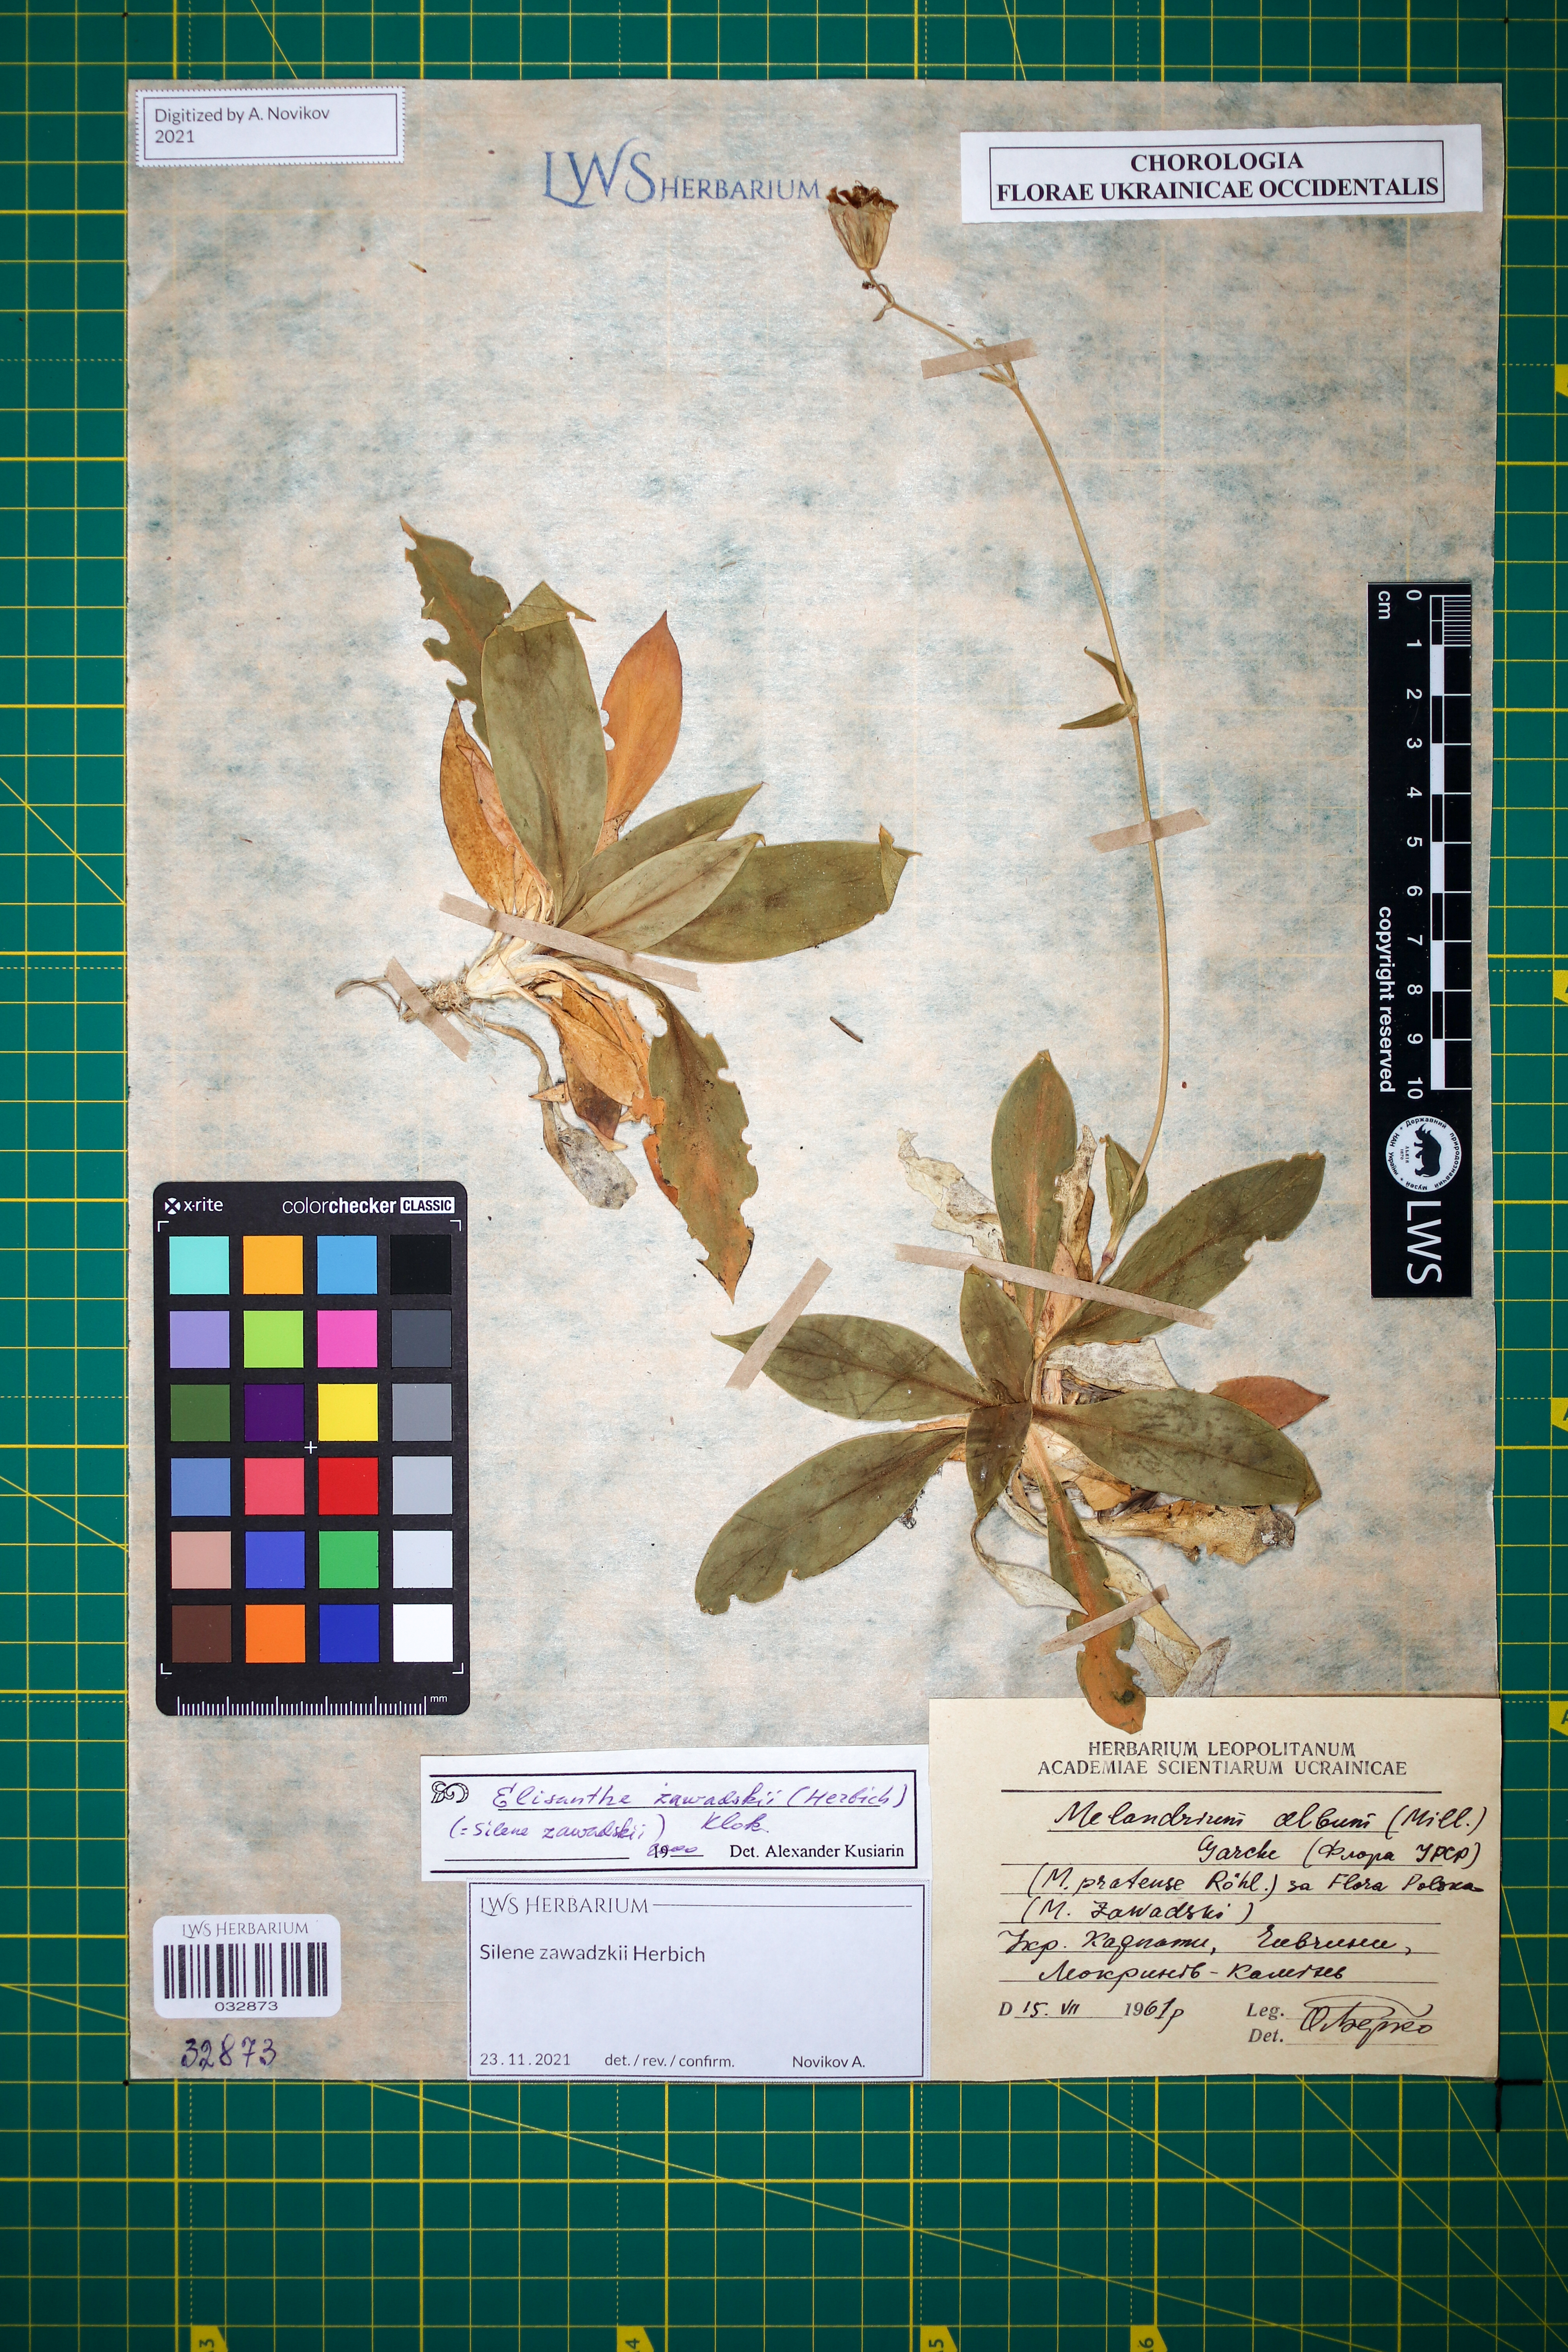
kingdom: Plantae
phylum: Tracheophyta
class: Magnoliopsida
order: Caryophyllales
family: Caryophyllaceae
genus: Silene
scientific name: Silene zawadzkii
